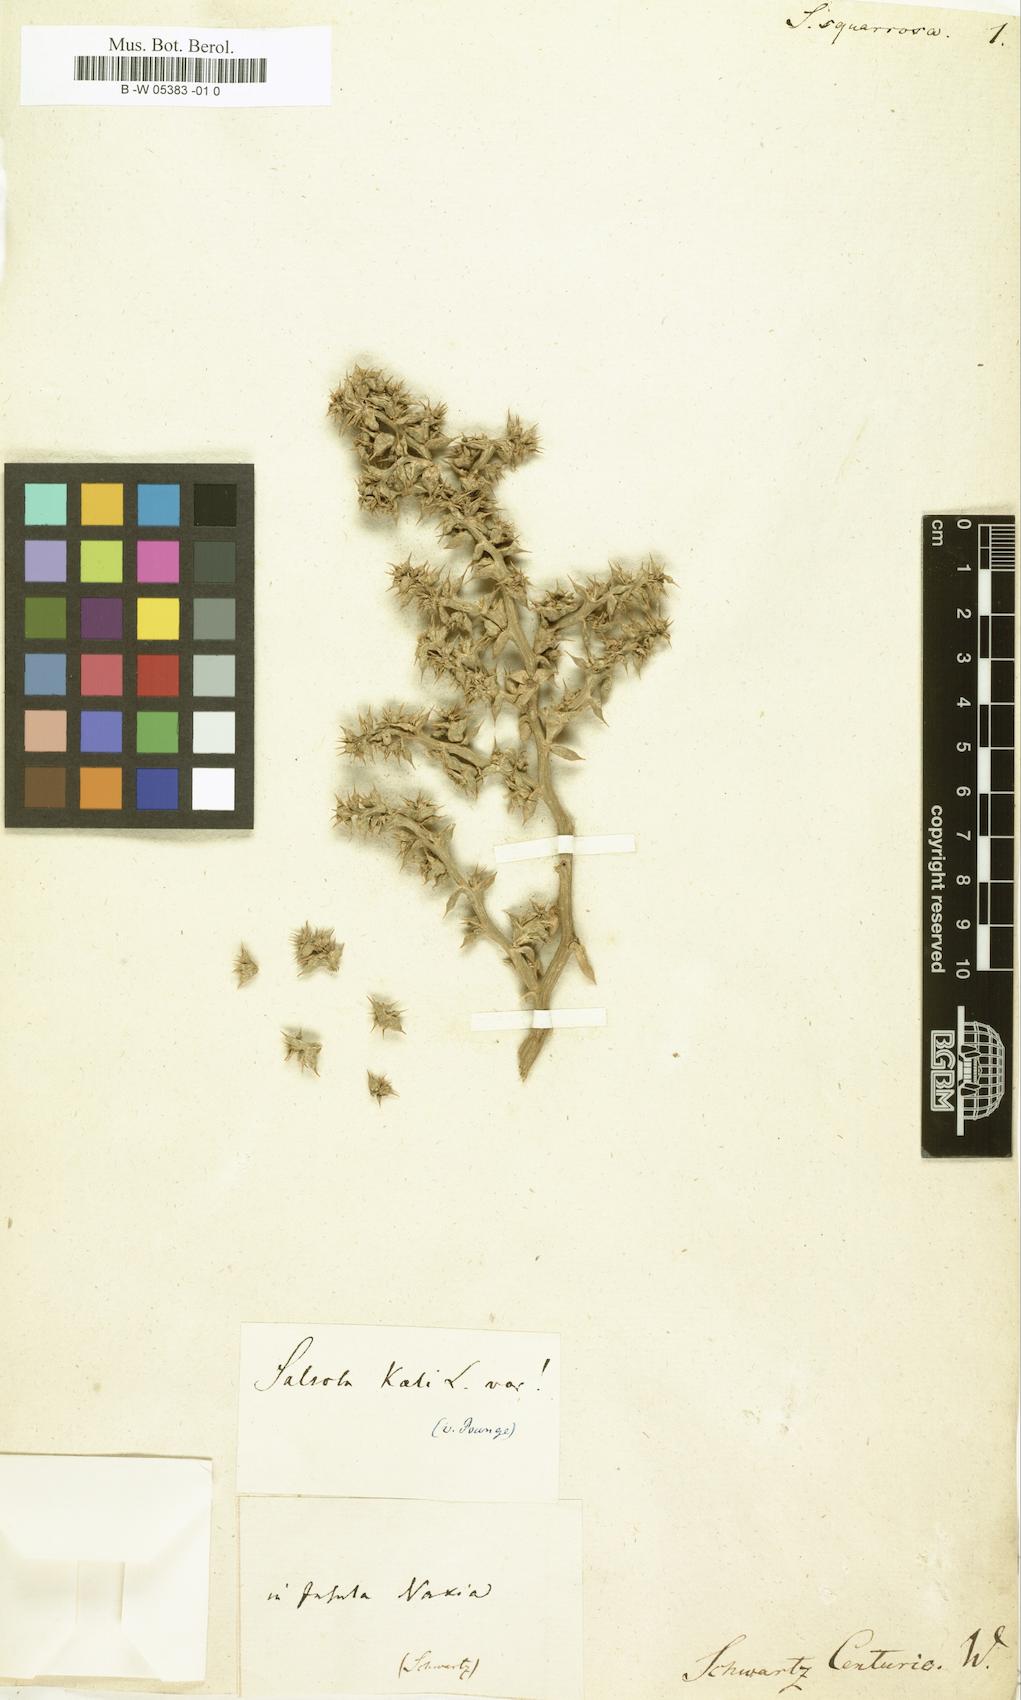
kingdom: Plantae
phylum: Tracheophyta
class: Magnoliopsida
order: Caryophyllales
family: Amaranthaceae
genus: Salsola
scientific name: Salsola squarrosa
